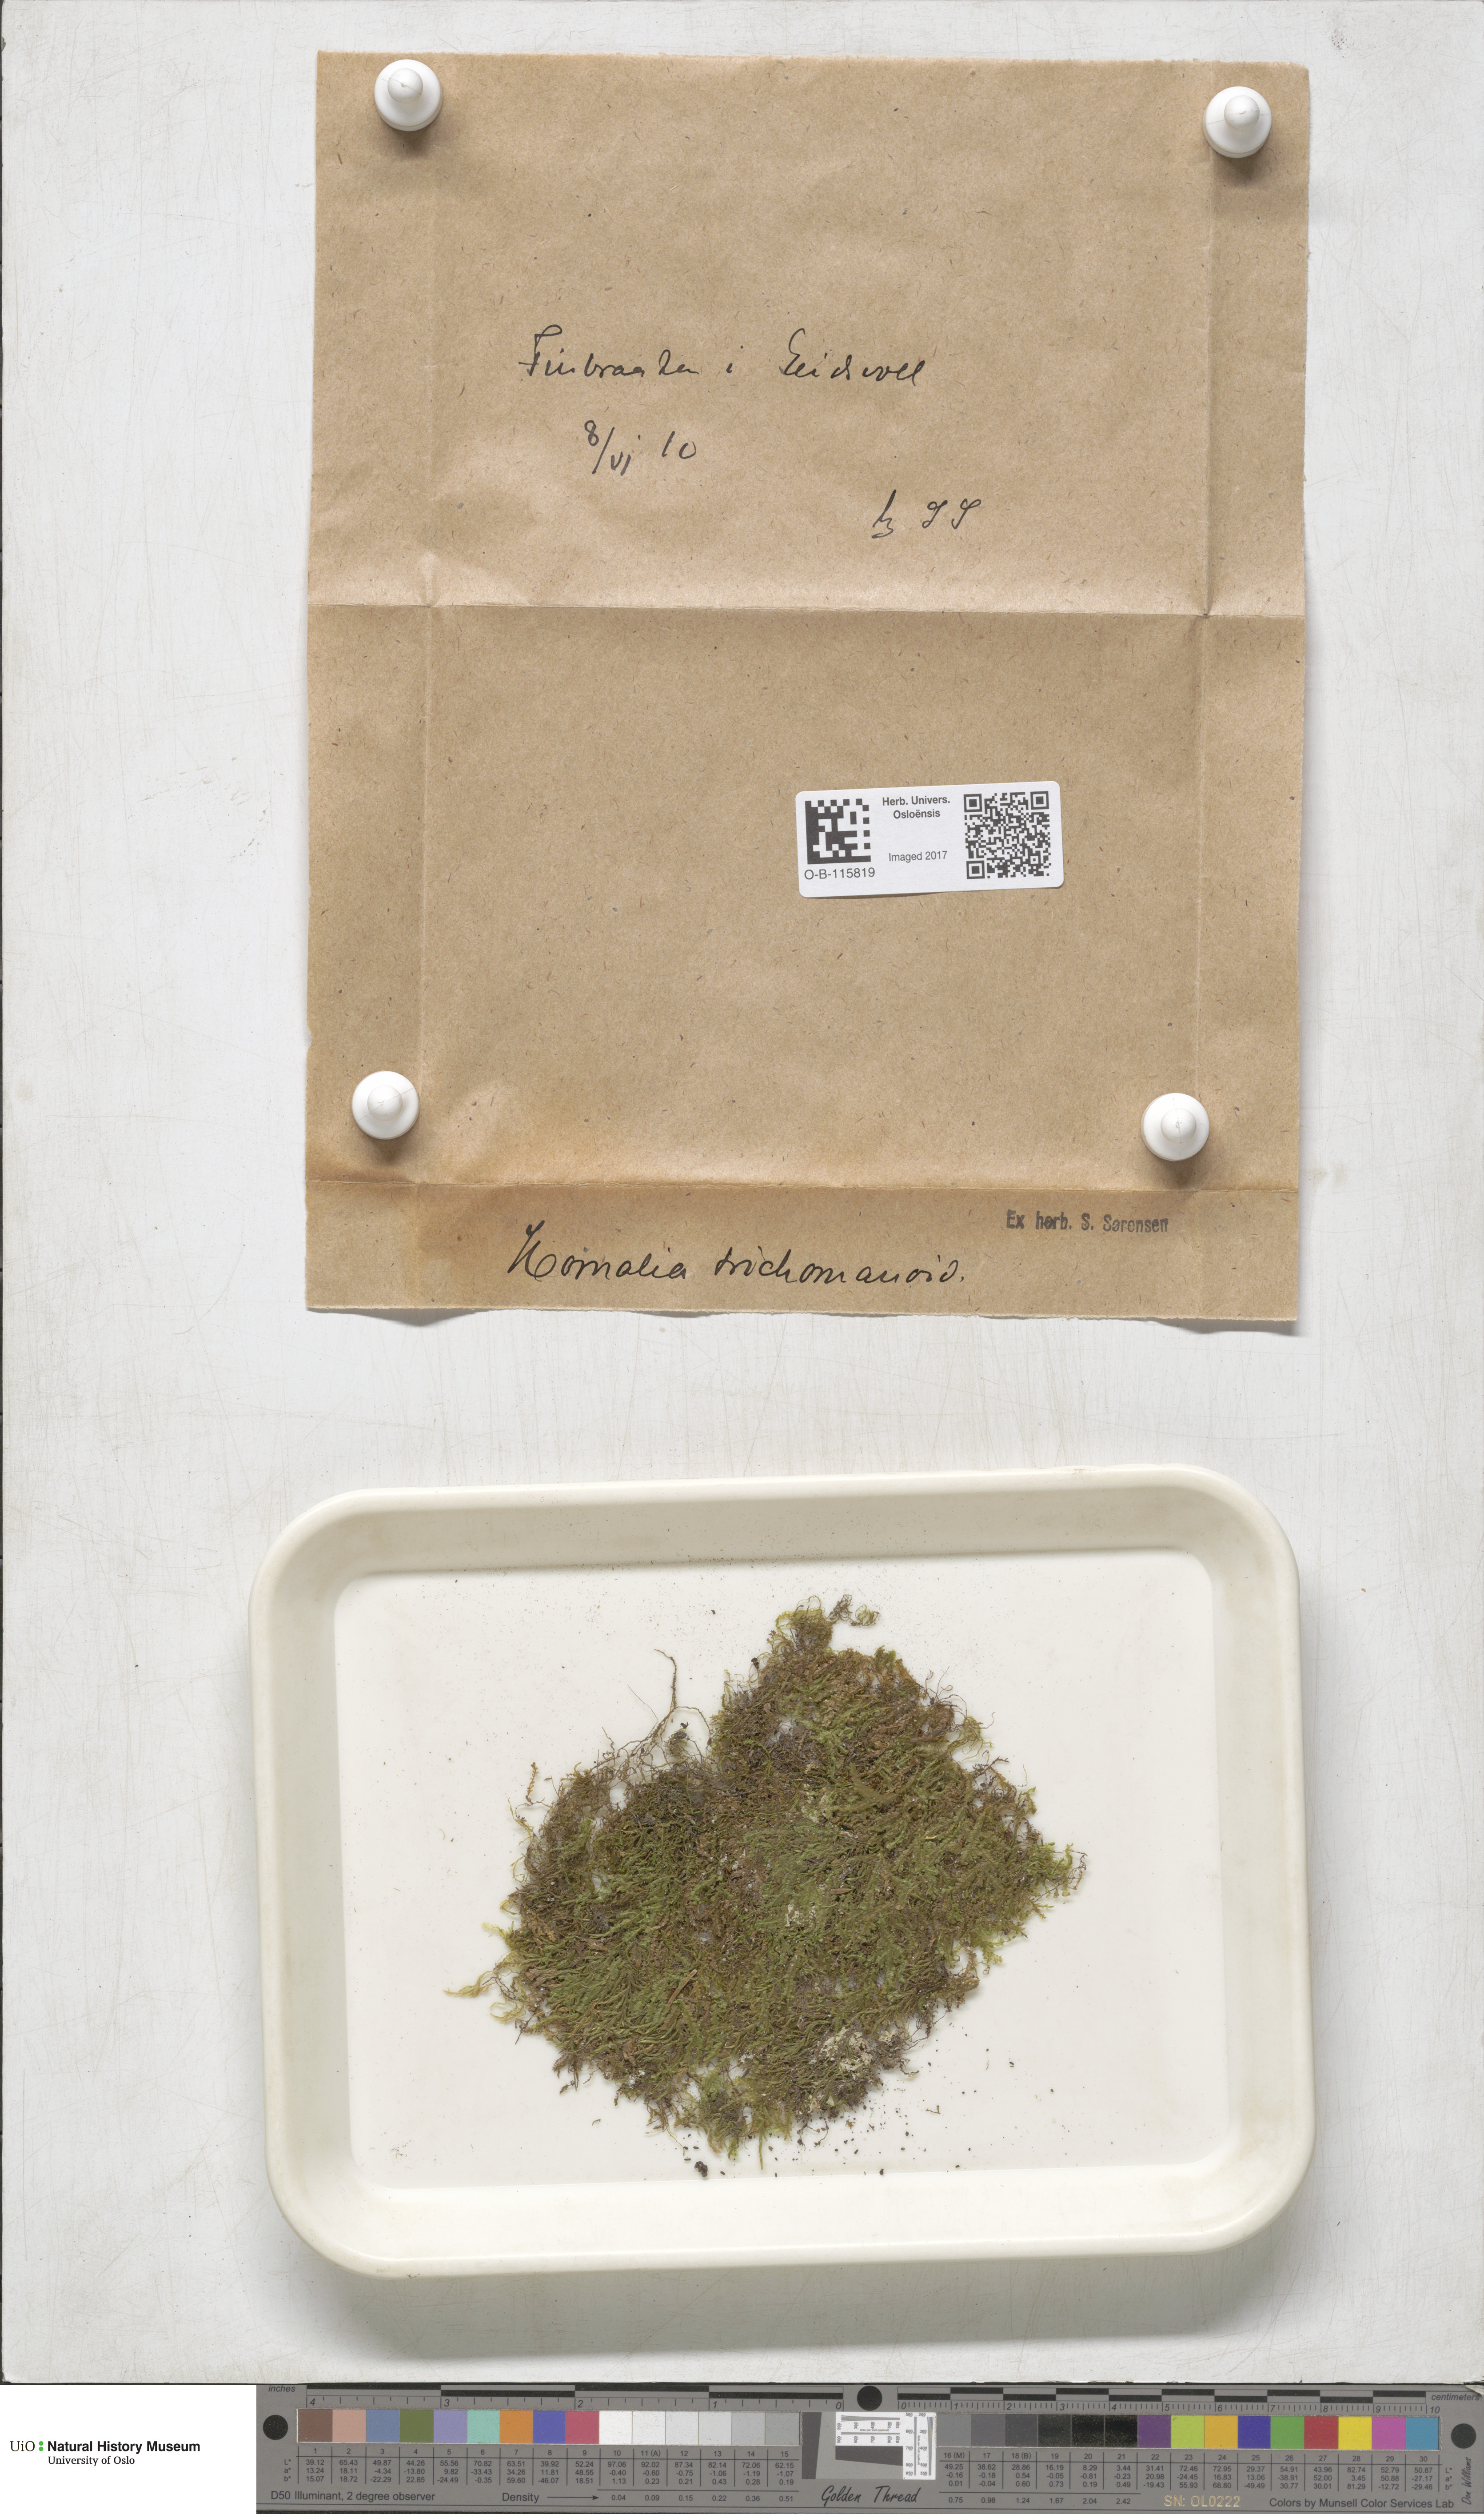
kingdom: Plantae
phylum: Bryophyta
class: Bryopsida
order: Hypnales
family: Neckeraceae
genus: Homalia
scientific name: Homalia trichomanoides
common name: Lime homalia moss
